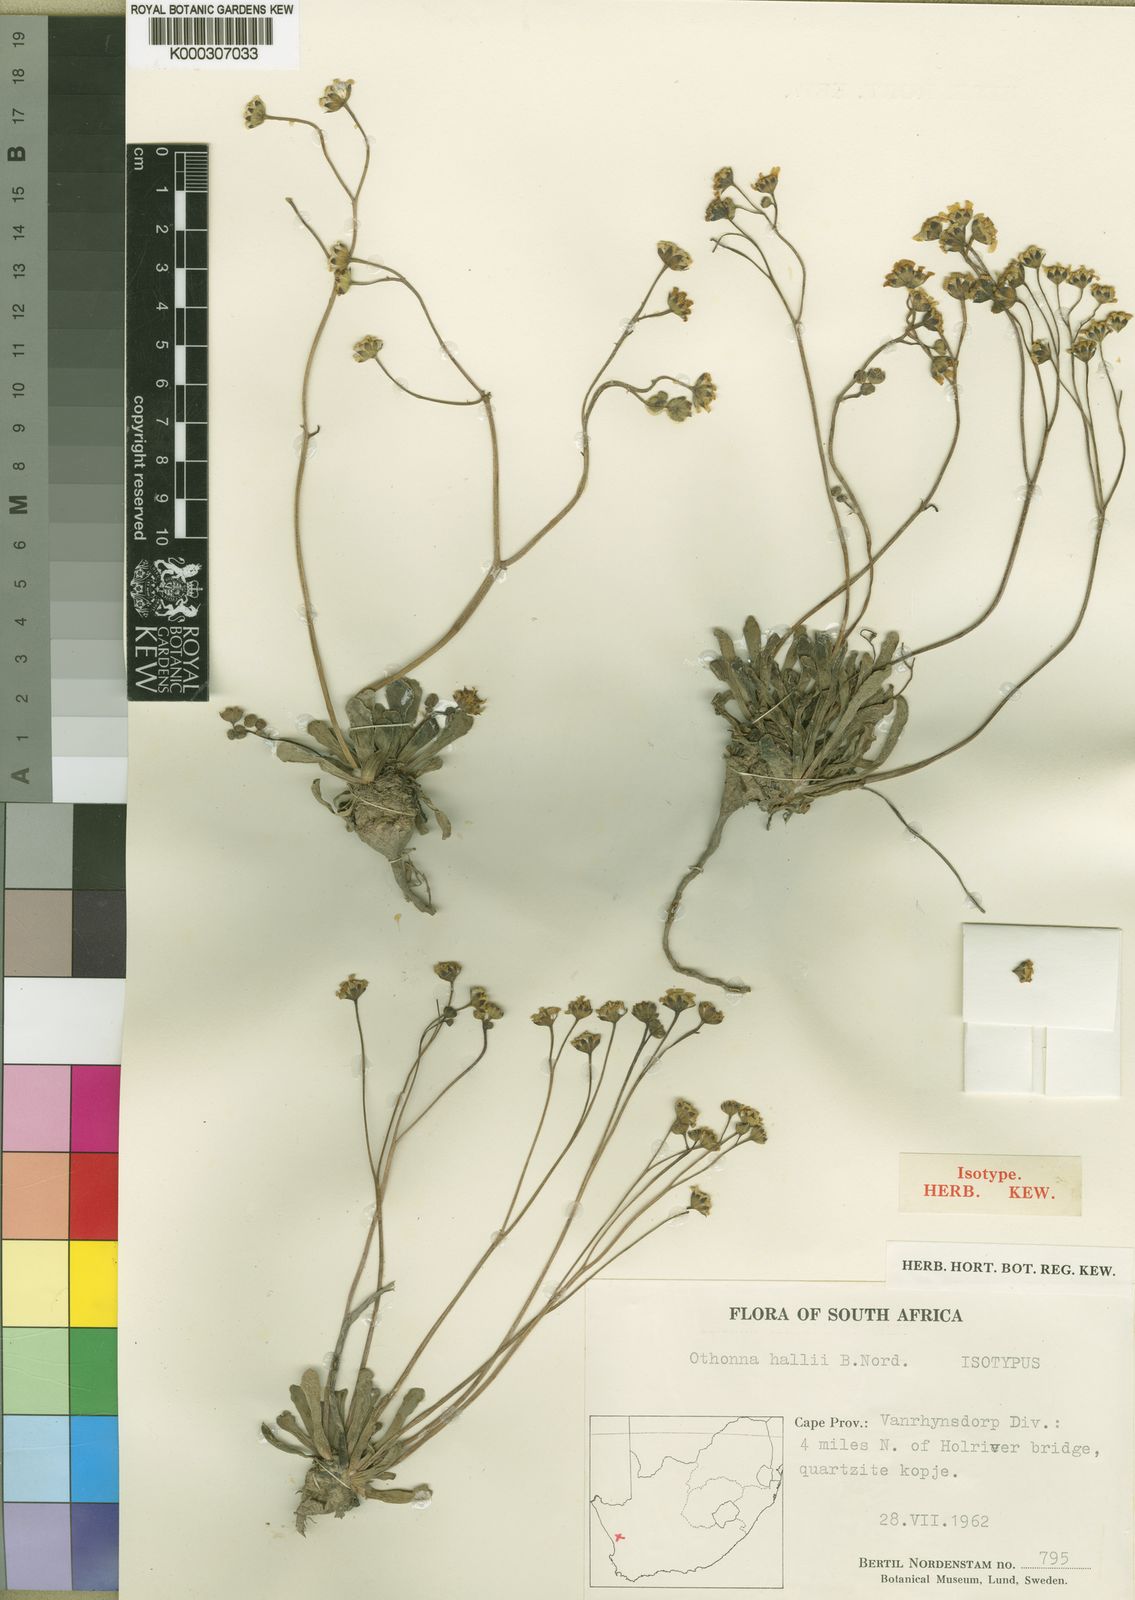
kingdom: Plantae
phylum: Tracheophyta
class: Magnoliopsida
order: Asterales
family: Asteraceae
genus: Othonna
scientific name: Othonna hallii
